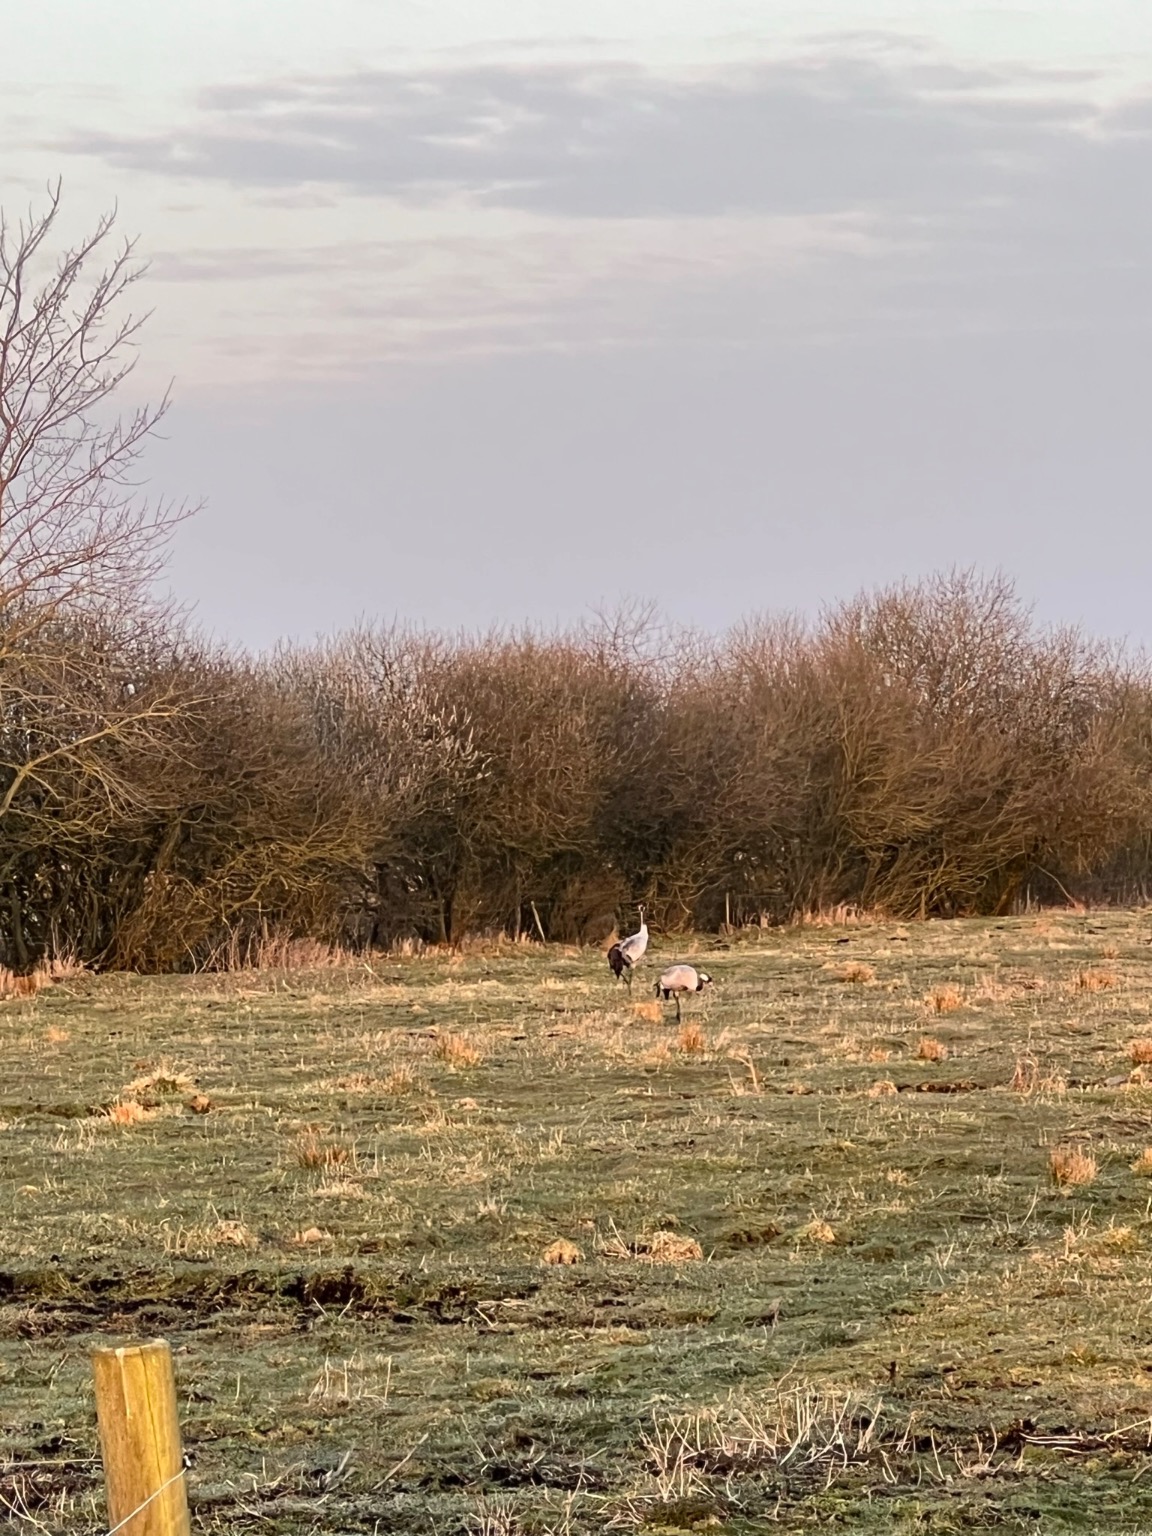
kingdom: Animalia
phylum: Chordata
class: Aves
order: Gruiformes
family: Gruidae
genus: Grus
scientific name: Grus grus
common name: Trane
